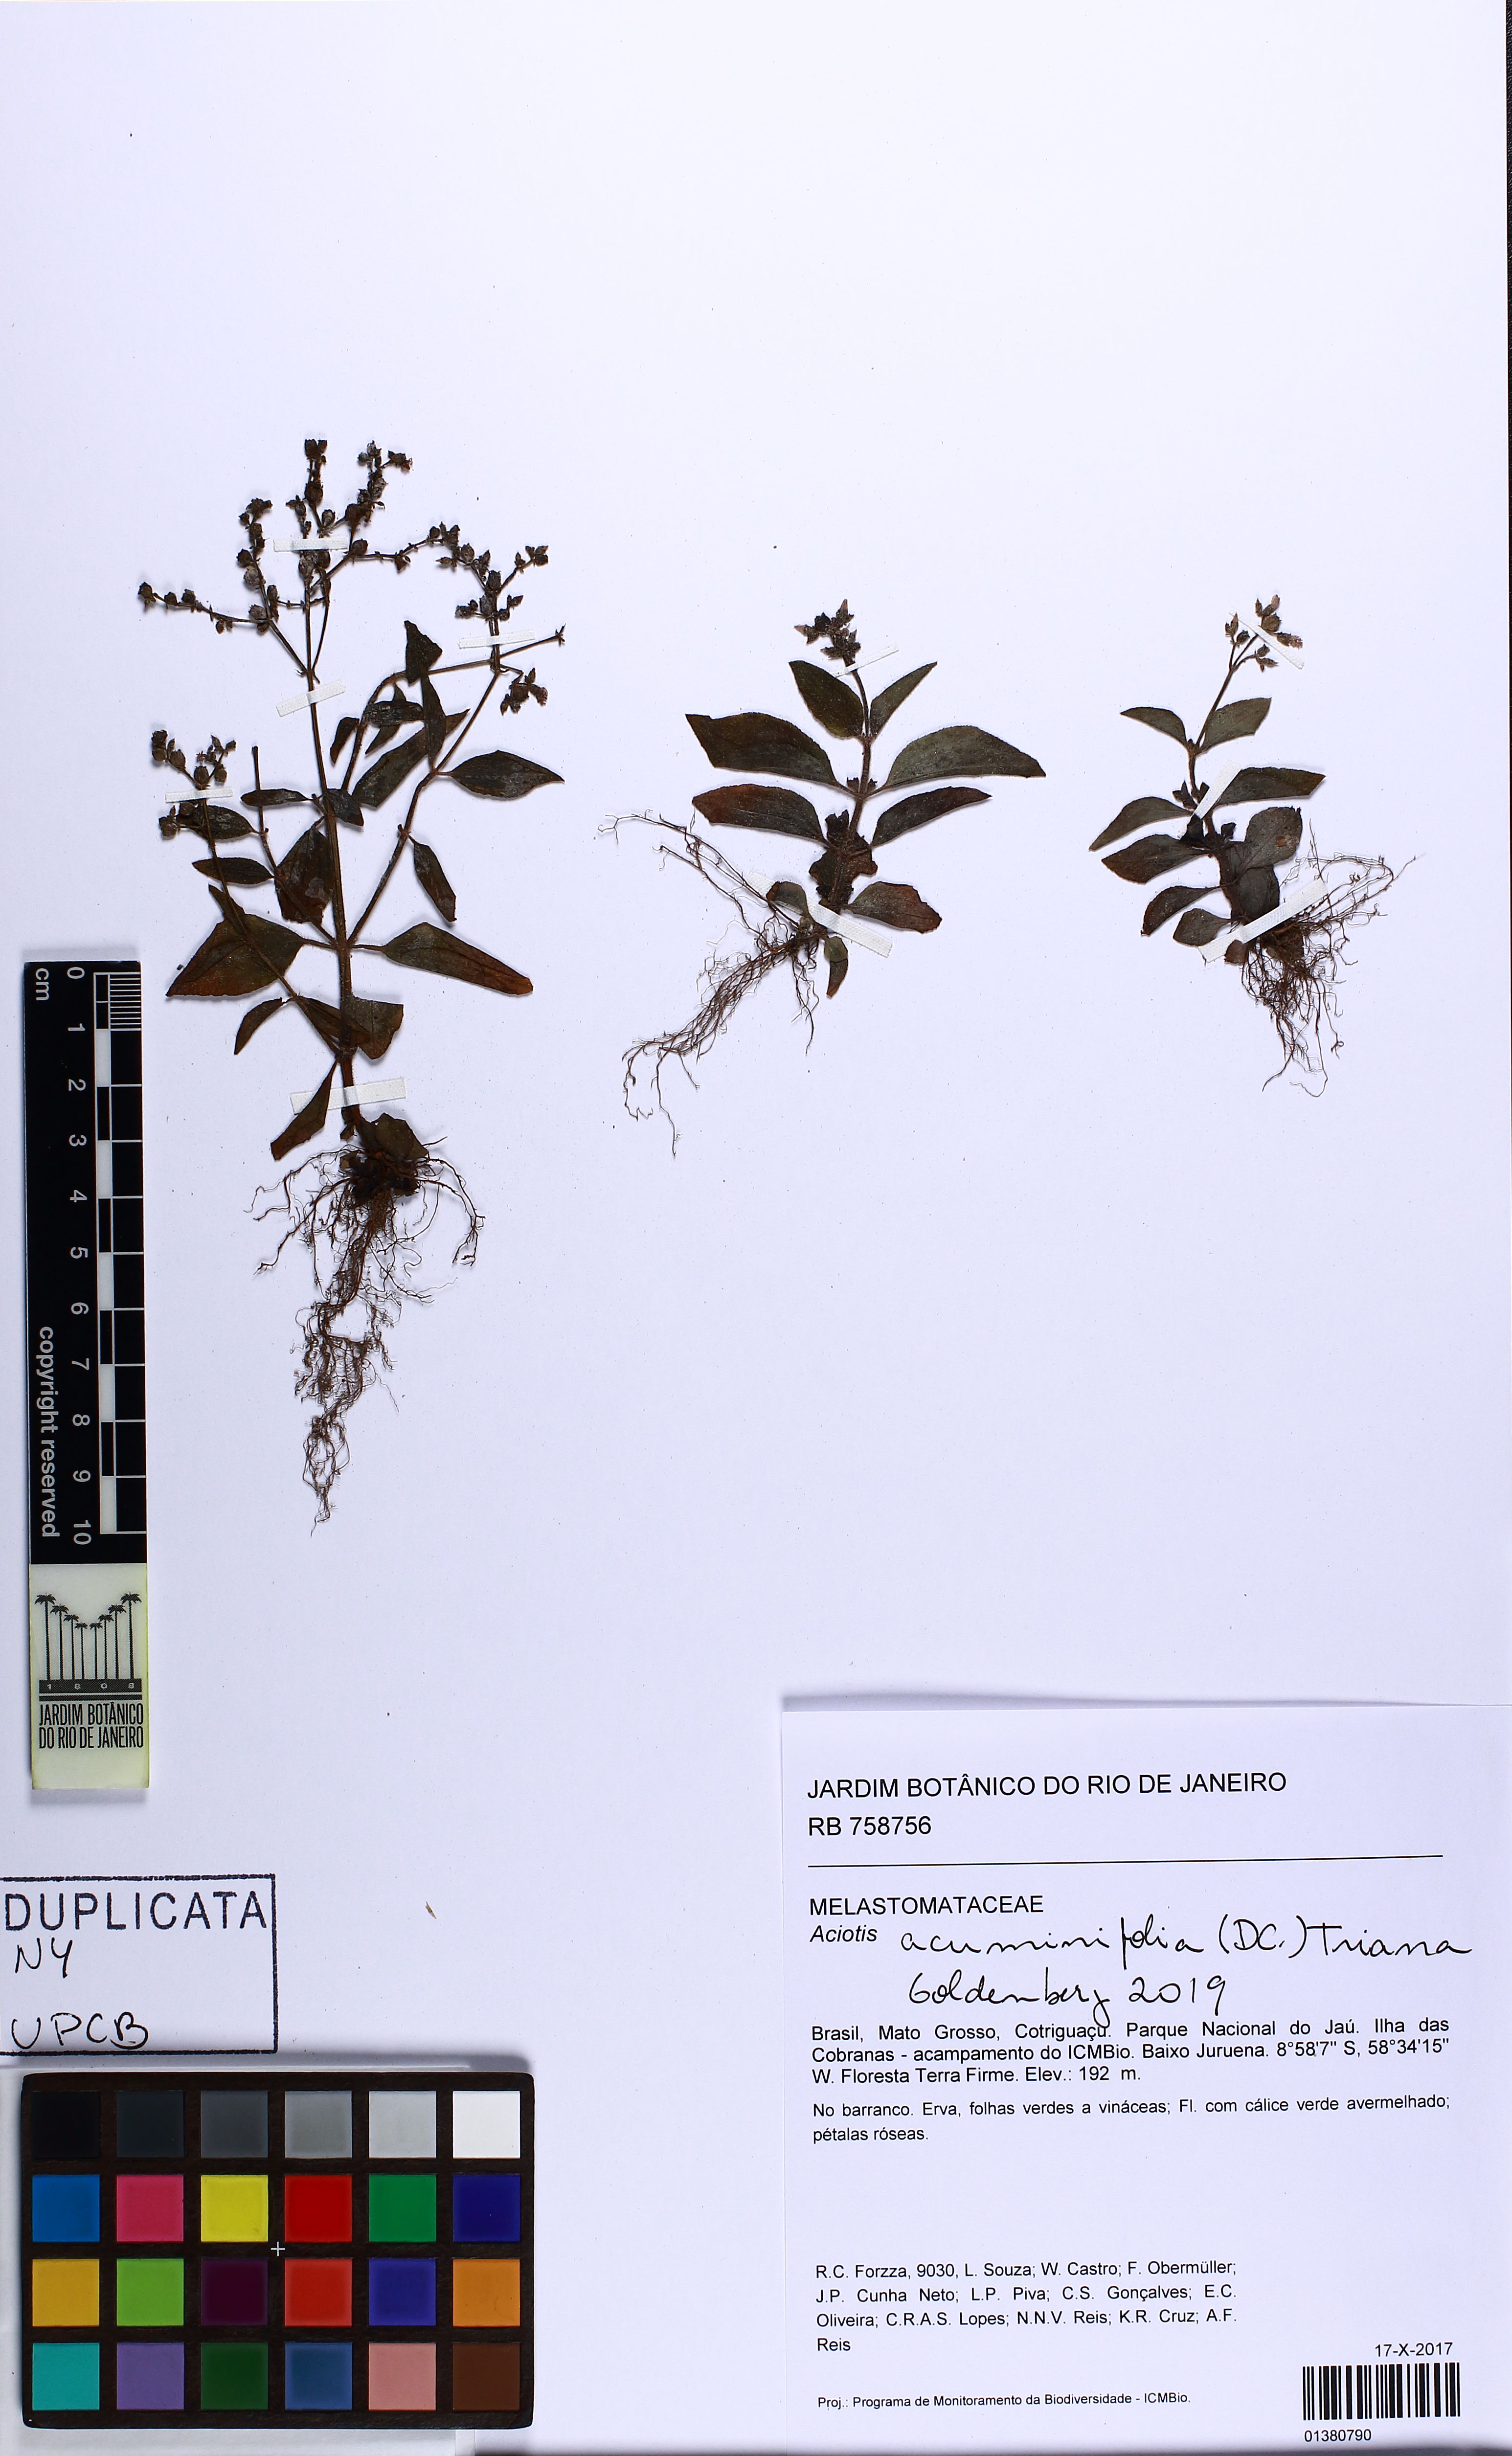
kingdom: Plantae
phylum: Tracheophyta
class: Magnoliopsida
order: Myrtales
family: Melastomataceae
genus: Aciotis
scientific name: Aciotis acuminifolia
